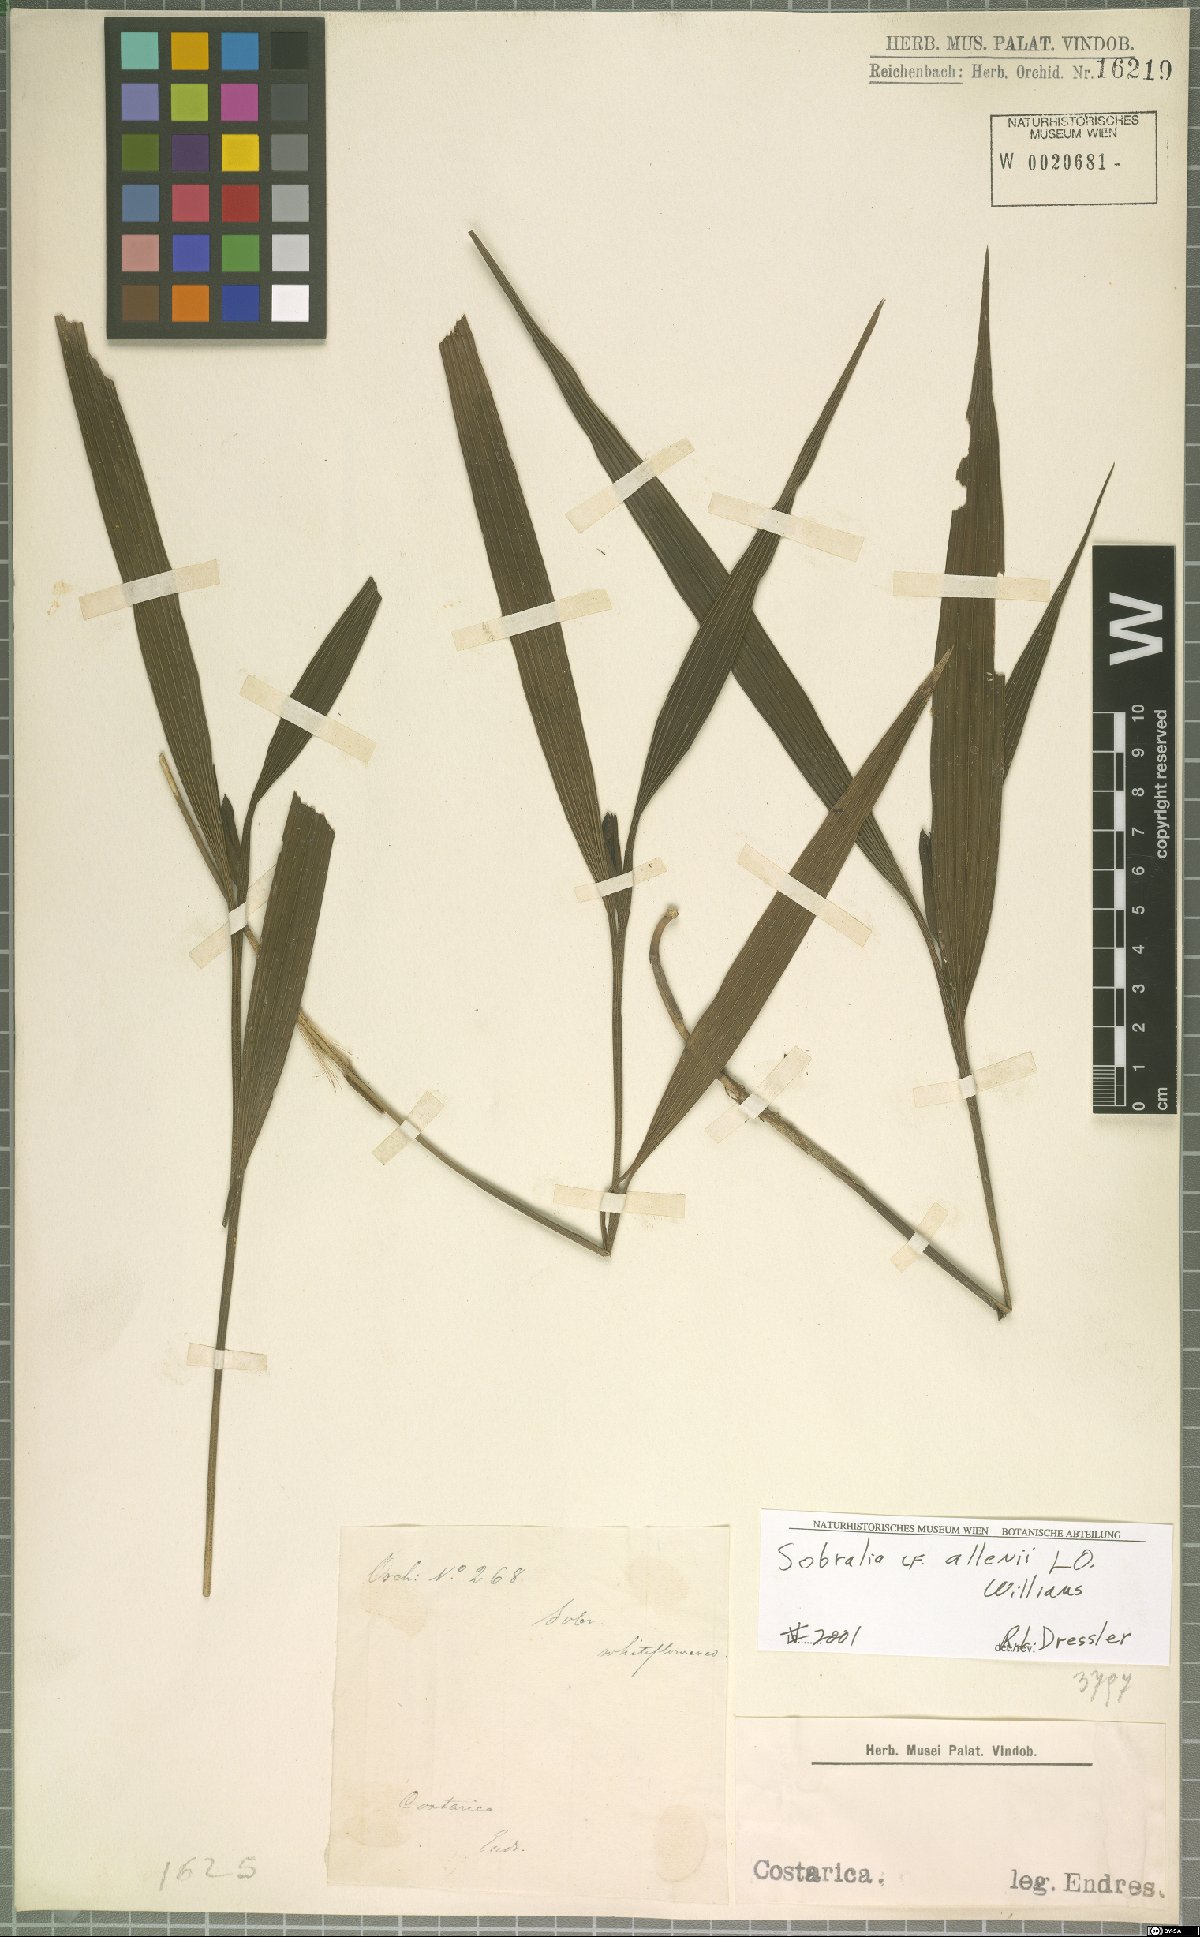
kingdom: Plantae
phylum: Tracheophyta
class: Liliopsida
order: Asparagales
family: Orchidaceae
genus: Sobralia
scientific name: Sobralia allenii
